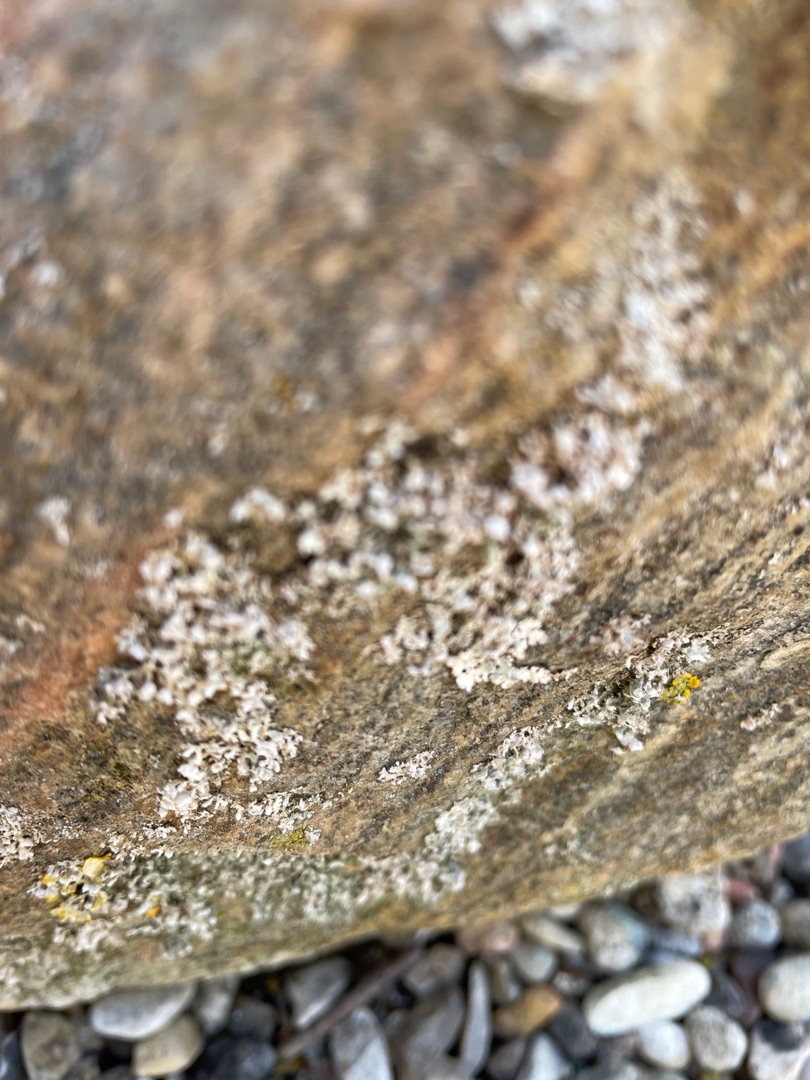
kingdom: Fungi
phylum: Ascomycota
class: Lecanoromycetes
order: Caliciales
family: Physciaceae
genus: Physcia
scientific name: Physcia tenella
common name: Spæd rosetlav
